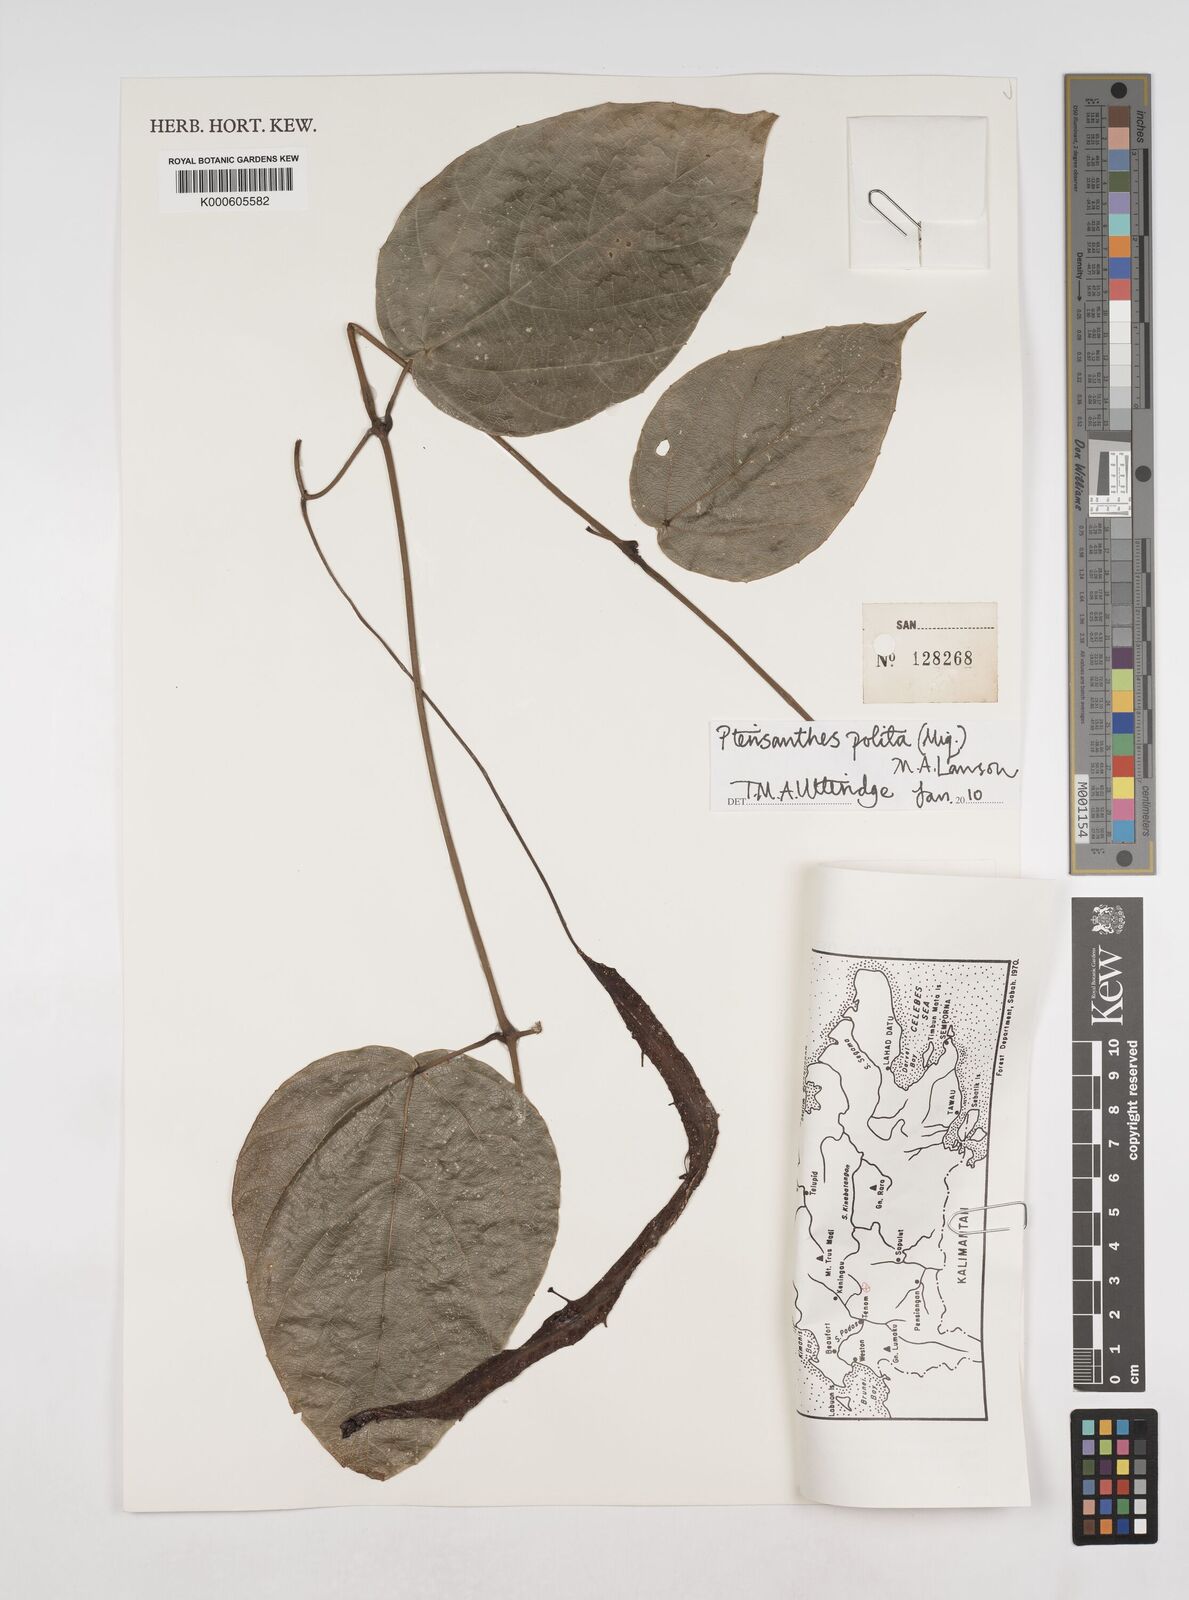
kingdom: Plantae
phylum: Tracheophyta
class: Magnoliopsida
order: Vitales
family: Vitaceae
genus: Ampelocissus
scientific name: Ampelocissus polita
